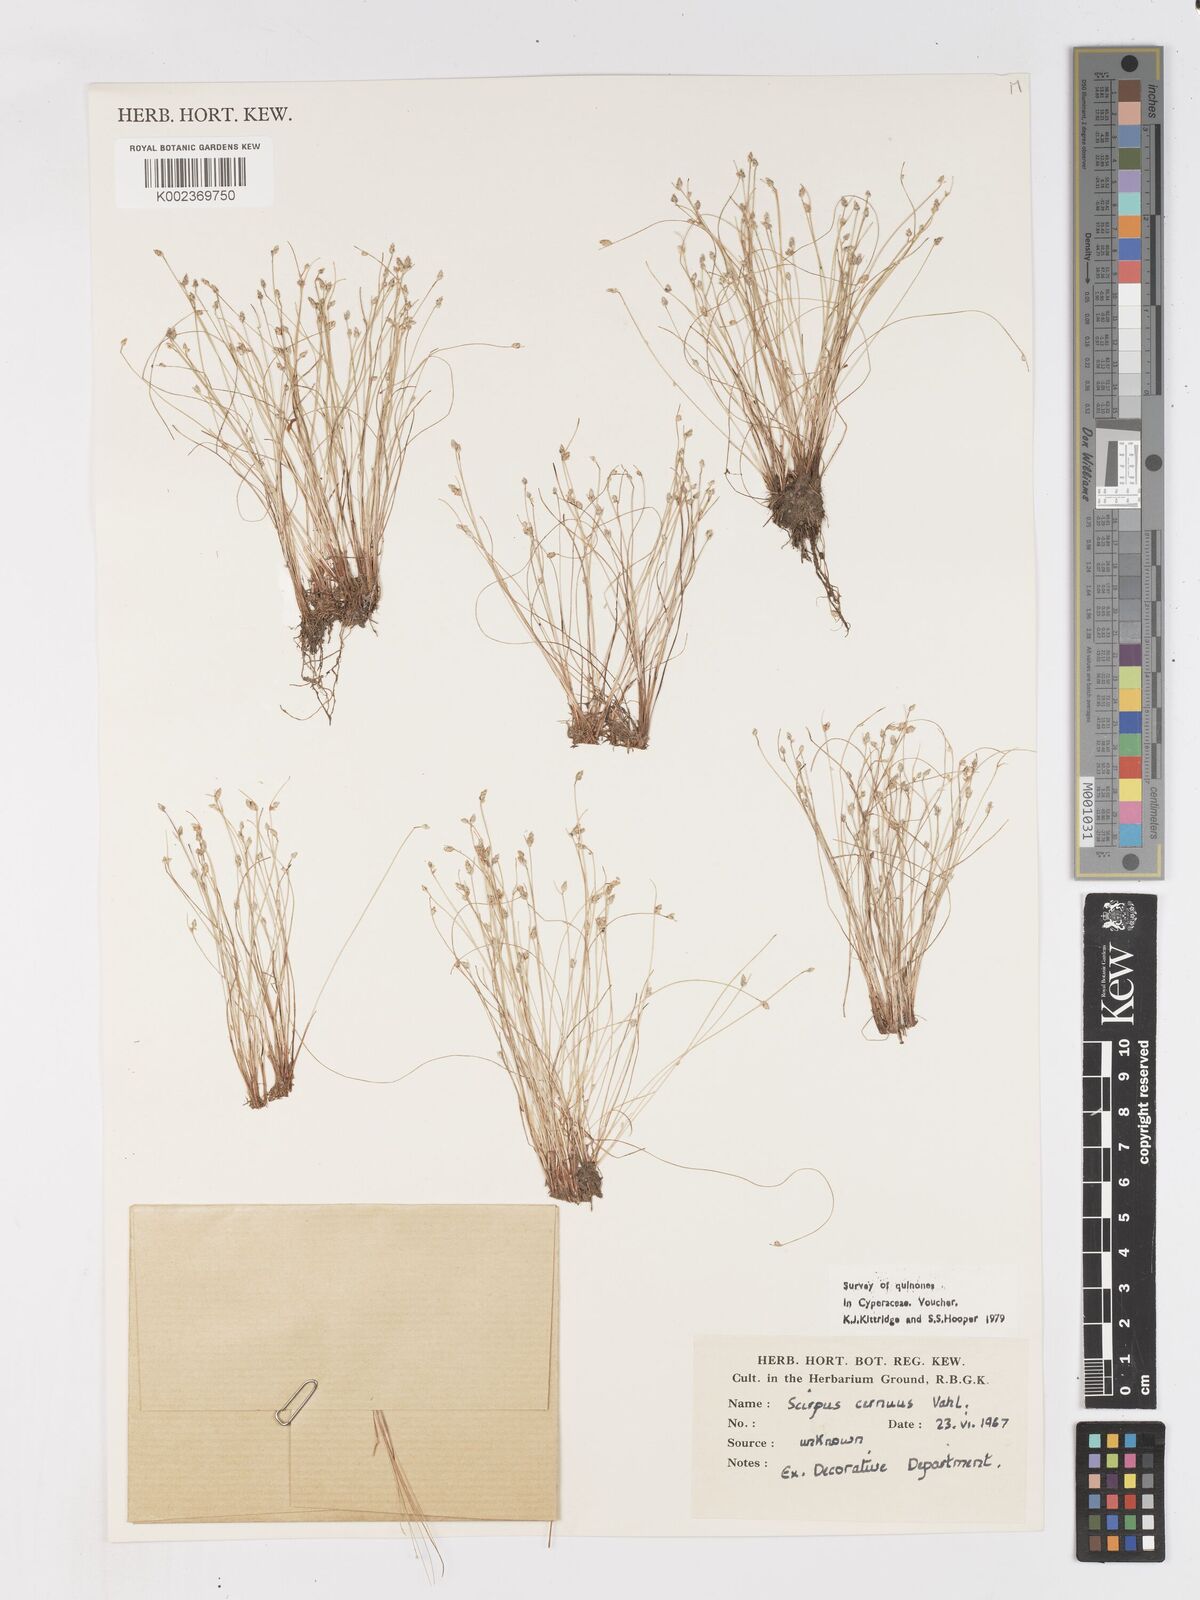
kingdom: Plantae
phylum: Tracheophyta
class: Liliopsida
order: Poales
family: Cyperaceae
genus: Isolepis
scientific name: Isolepis cernua
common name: Slender club-rush
